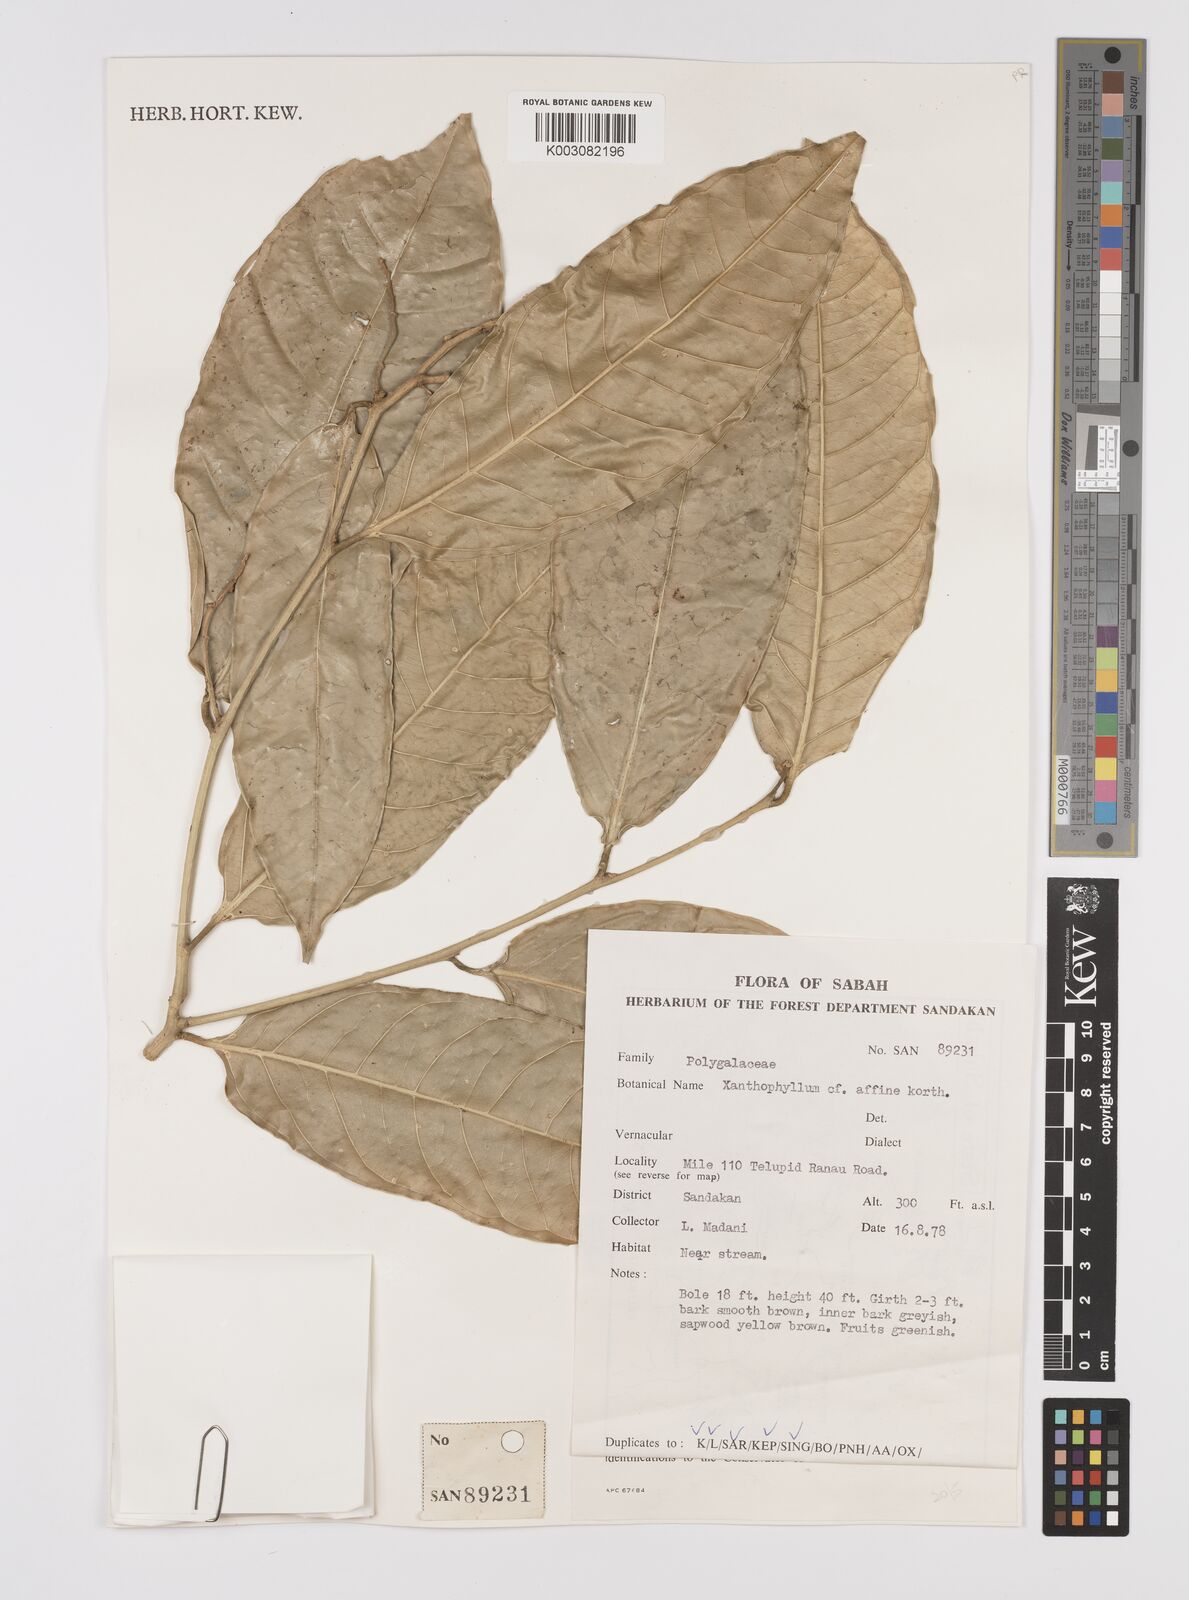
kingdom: Plantae
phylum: Tracheophyta
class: Magnoliopsida
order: Fabales
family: Polygalaceae
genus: Xanthophyllum
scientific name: Xanthophyllum flavescens
